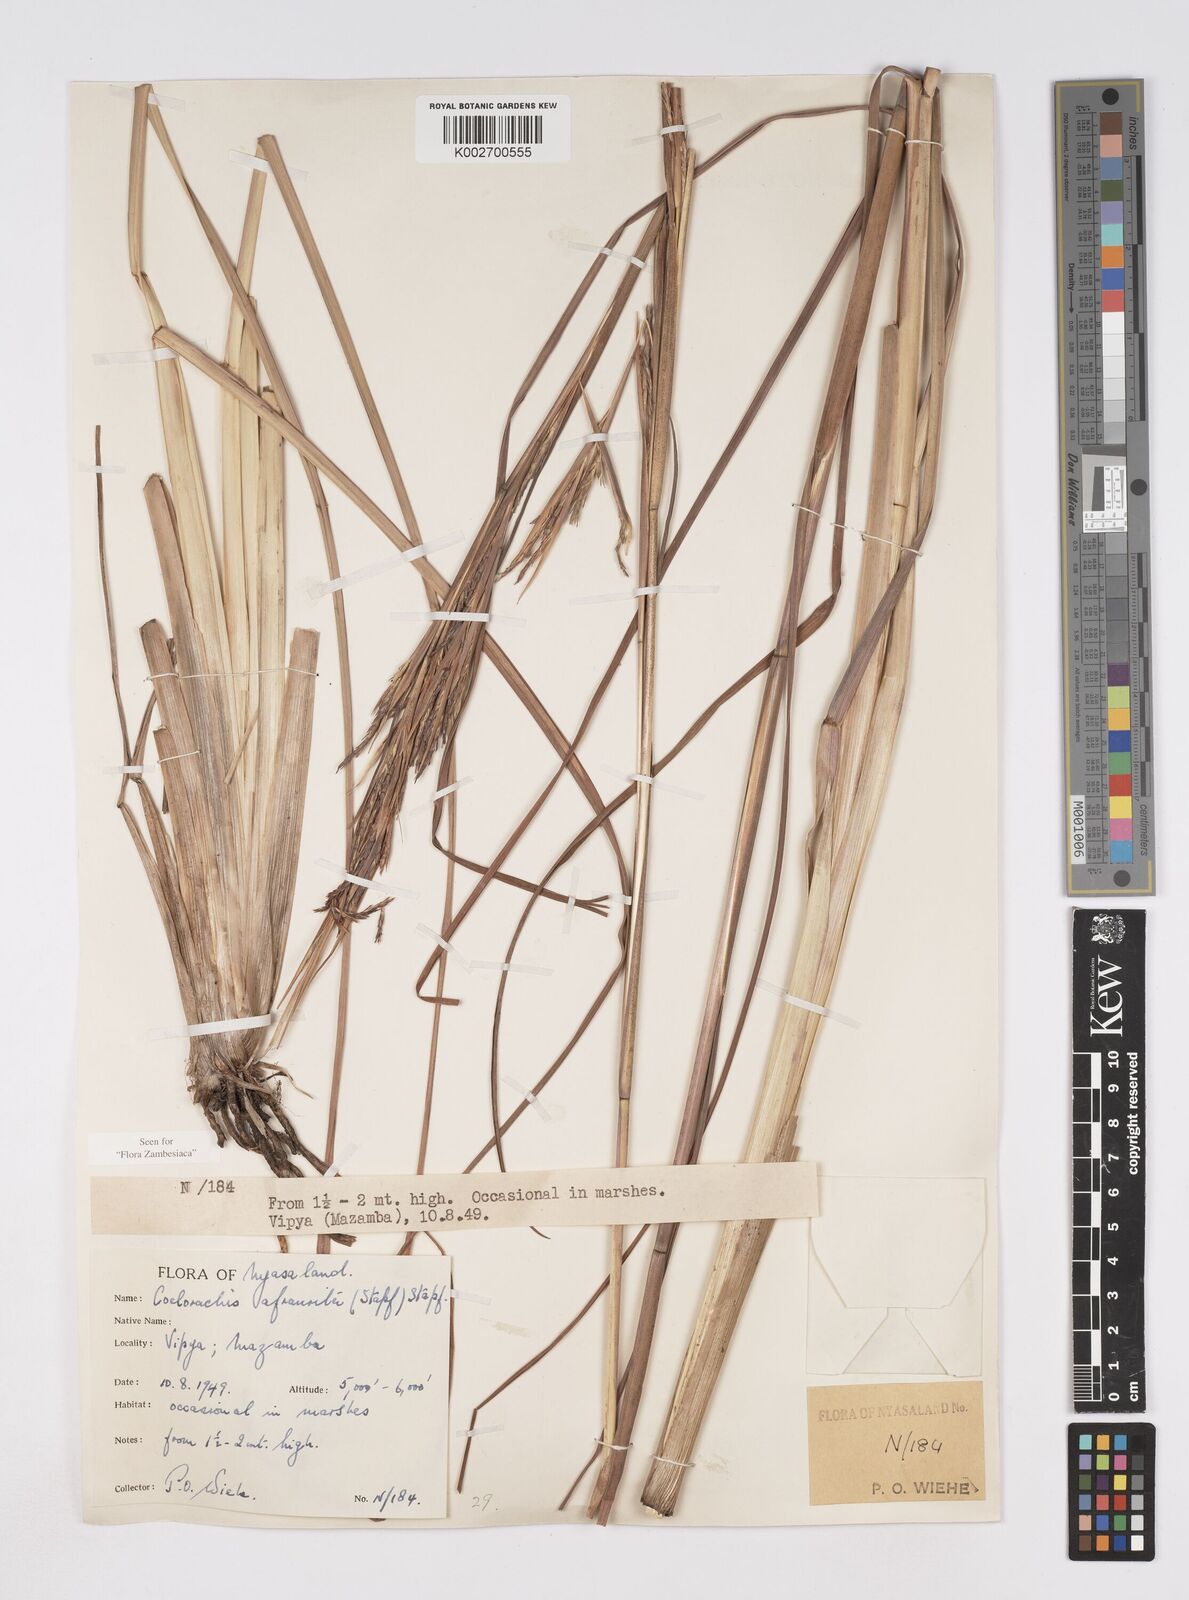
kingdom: Plantae
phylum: Tracheophyta
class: Liliopsida
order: Poales
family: Poaceae
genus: Rottboellia
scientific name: Rottboellia afraurita
